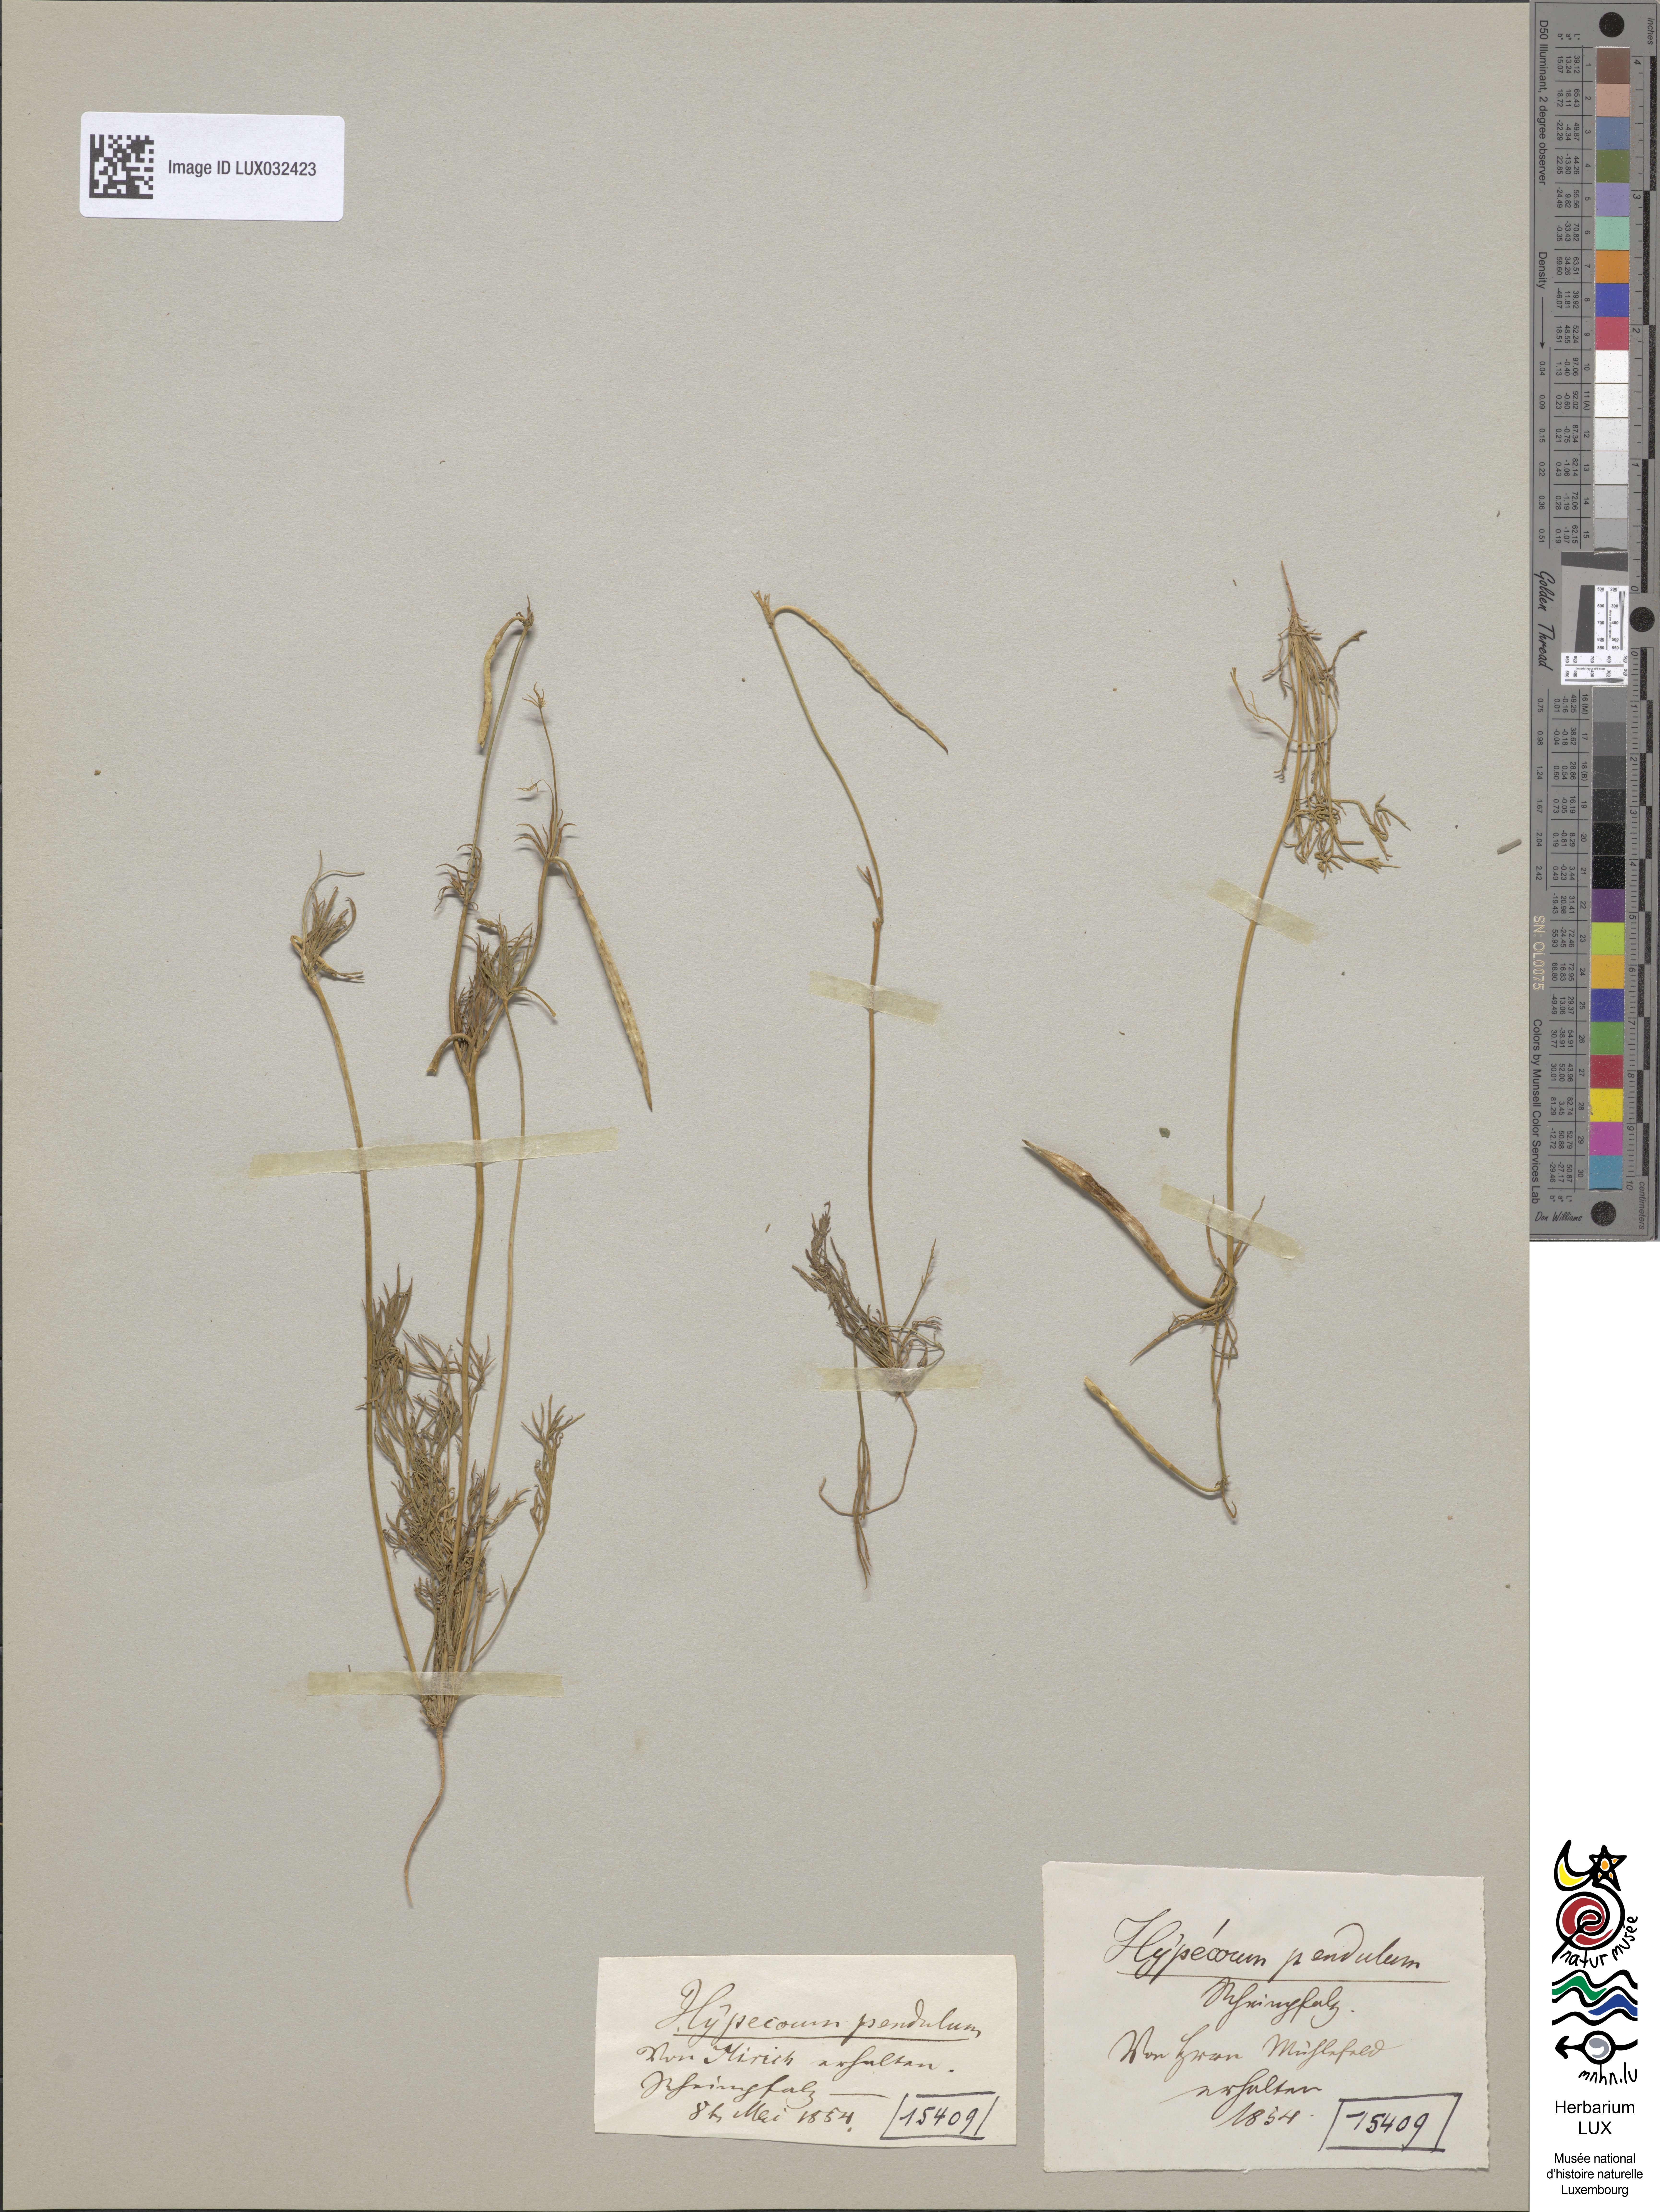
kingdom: Plantae
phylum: Tracheophyta
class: Magnoliopsida
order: Ranunculales
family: Papaveraceae
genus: Hypecoum
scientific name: Hypecoum pendulum
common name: Nodding hypecoum
